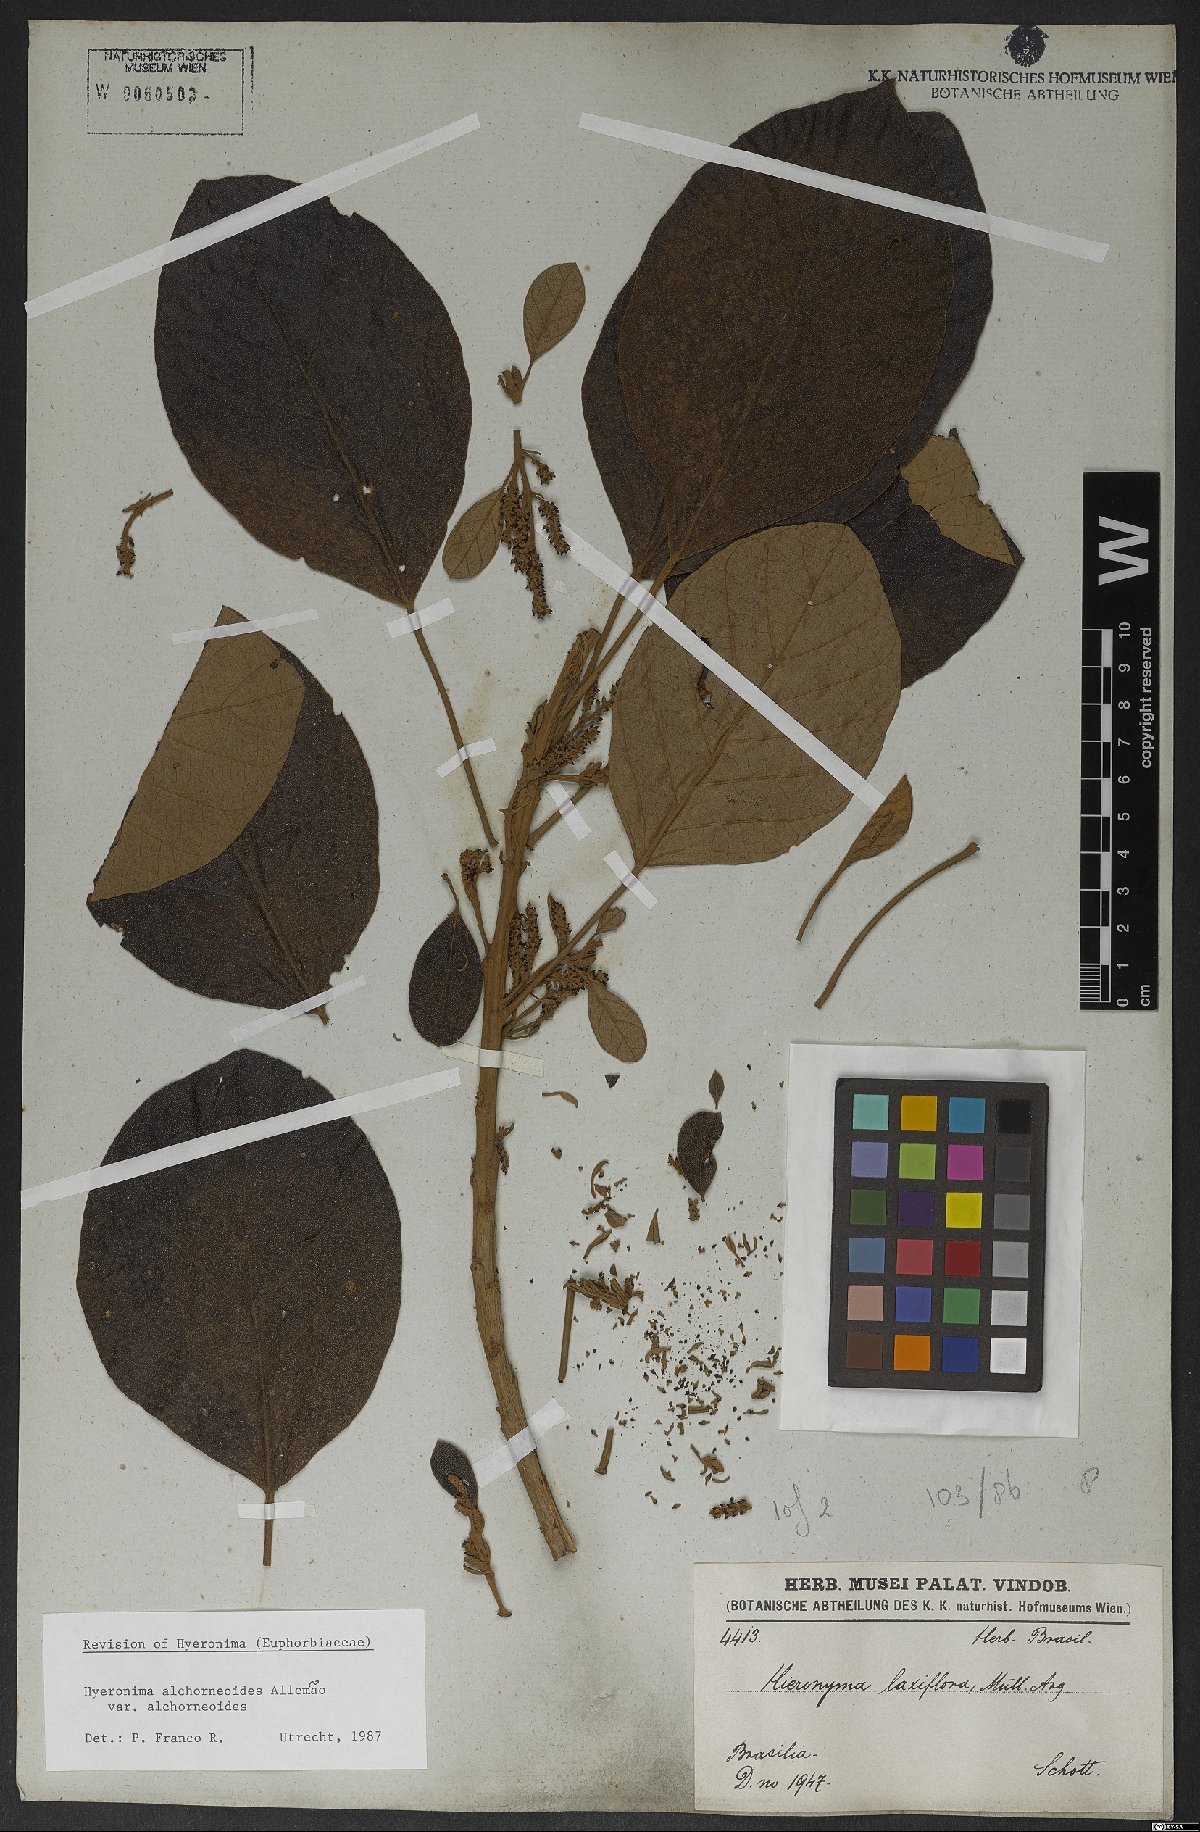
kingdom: Plantae
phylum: Tracheophyta
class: Magnoliopsida
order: Malpighiales
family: Phyllanthaceae
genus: Hieronyma
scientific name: Hieronyma alchorneoides
